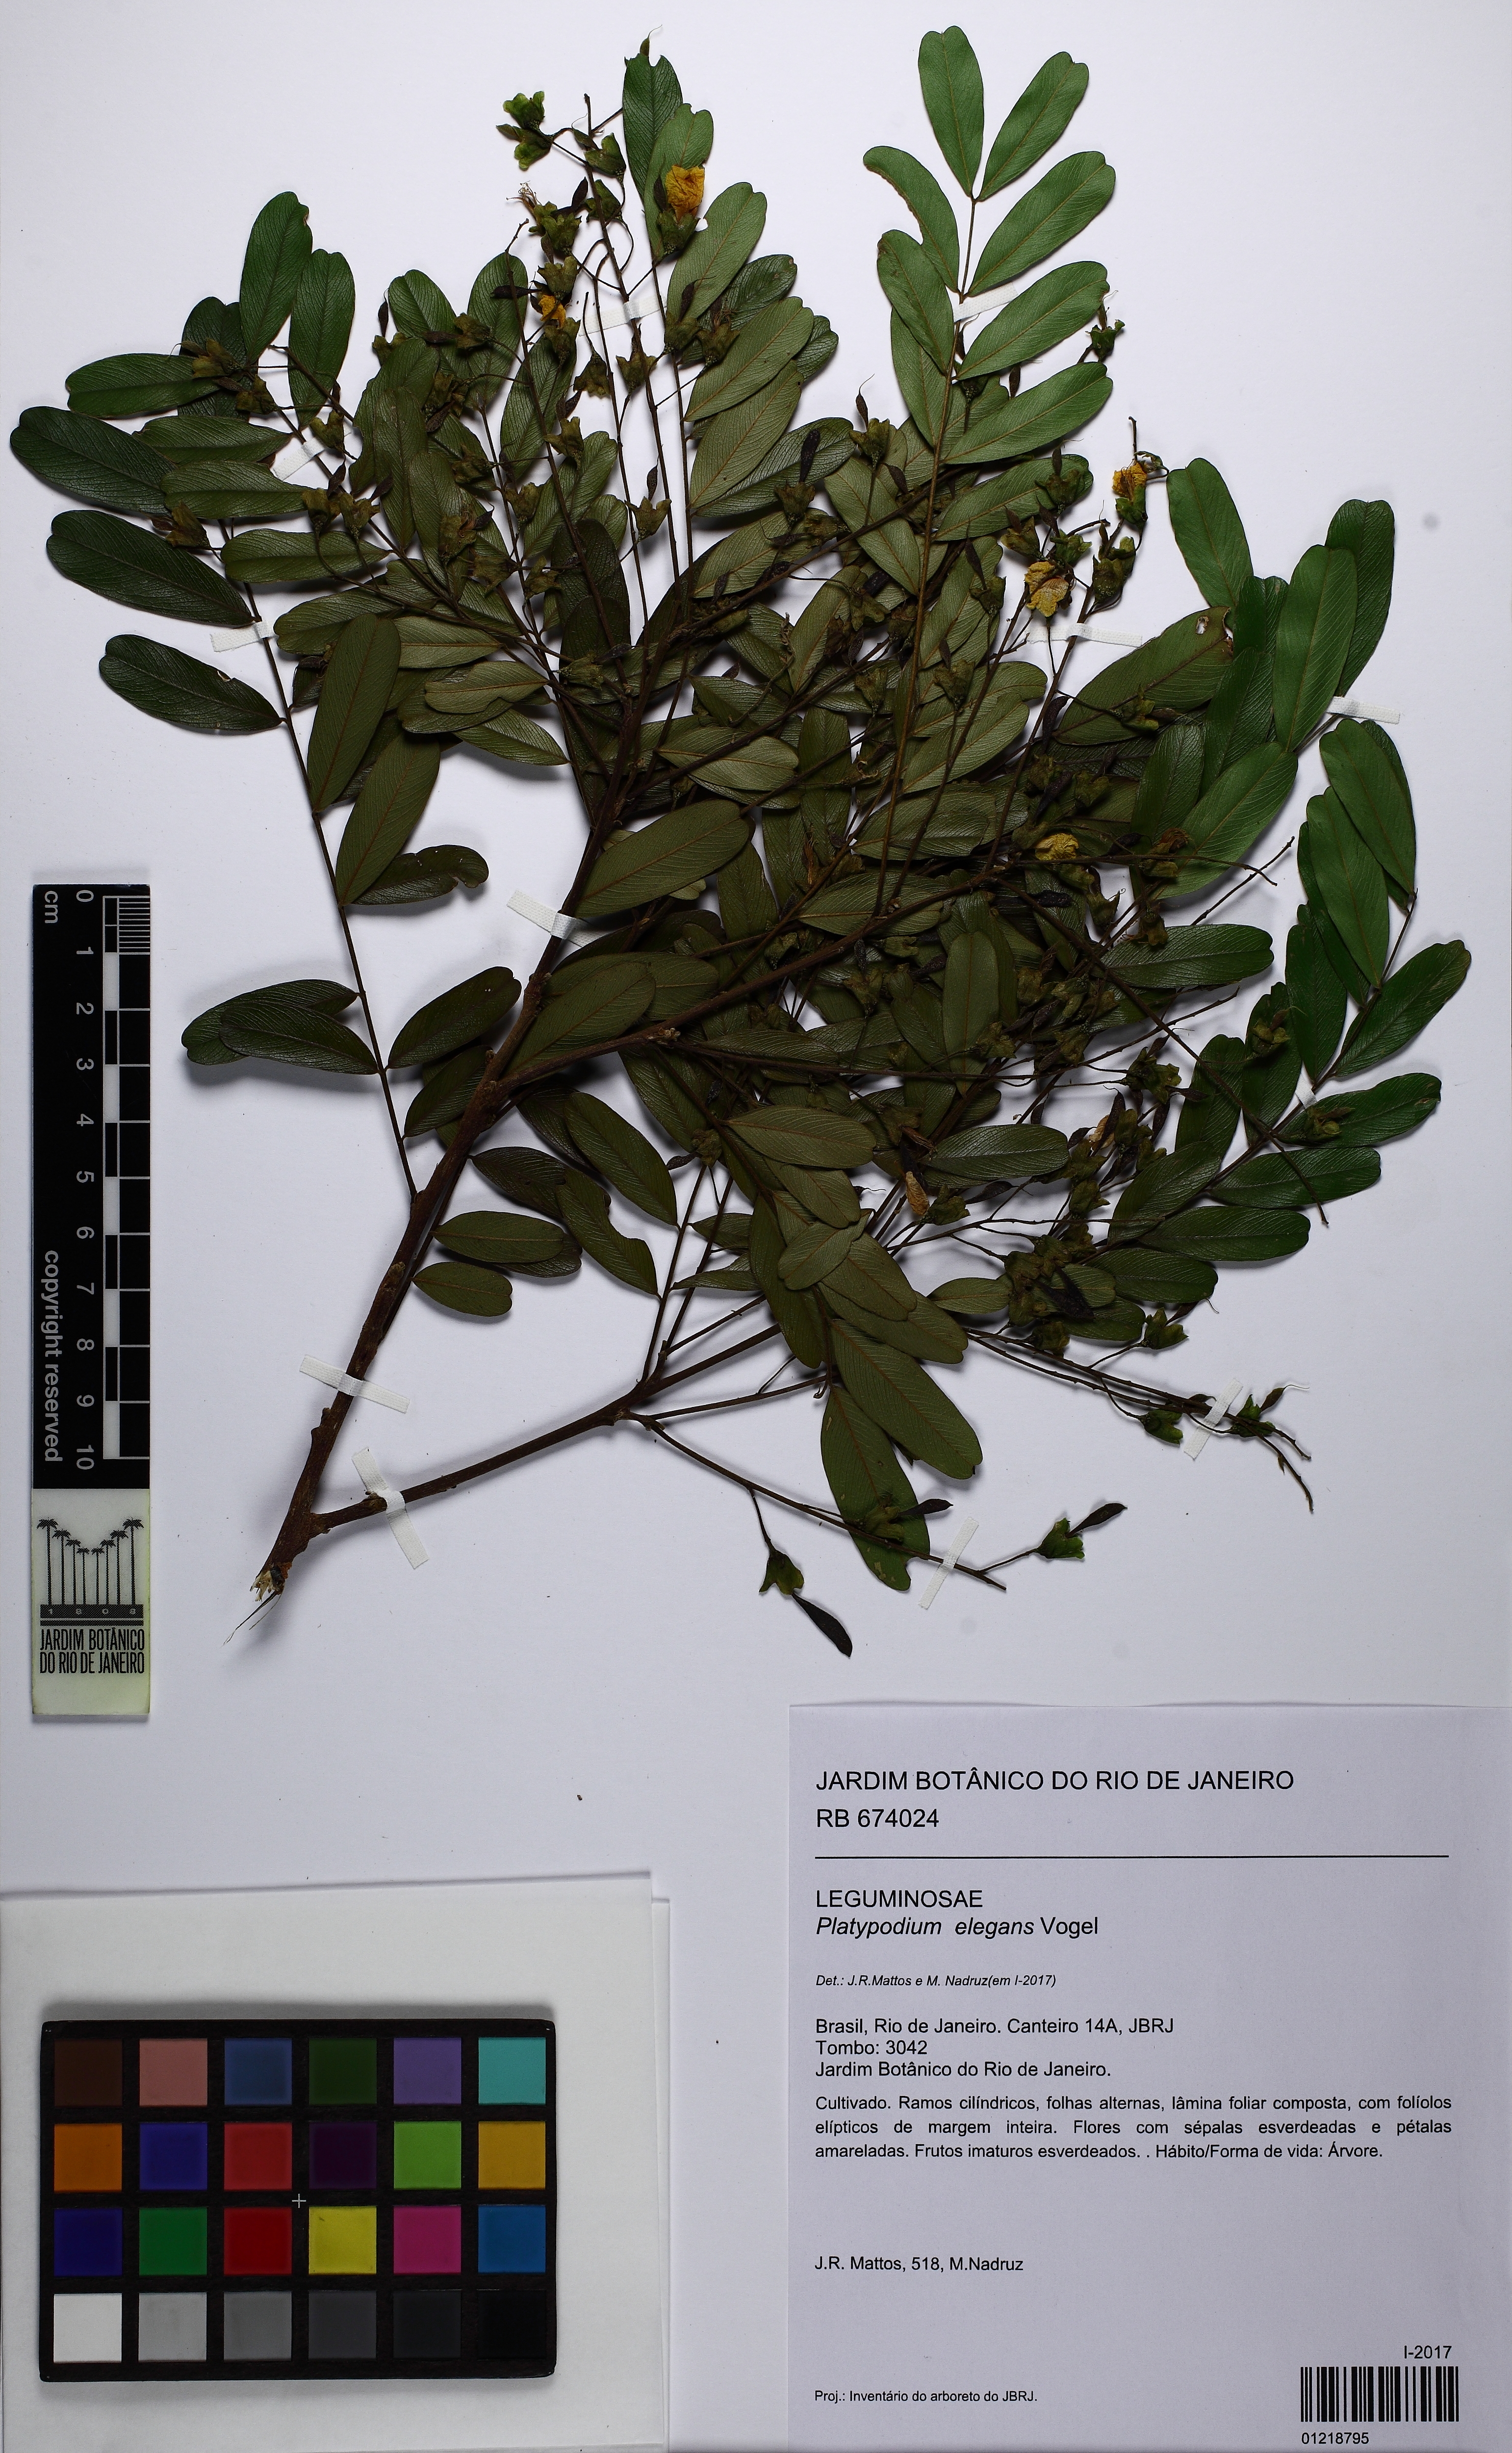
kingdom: Plantae
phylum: Tracheophyta
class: Magnoliopsida
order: Fabales
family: Fabaceae
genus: Platypodium
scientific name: Platypodium elegans
